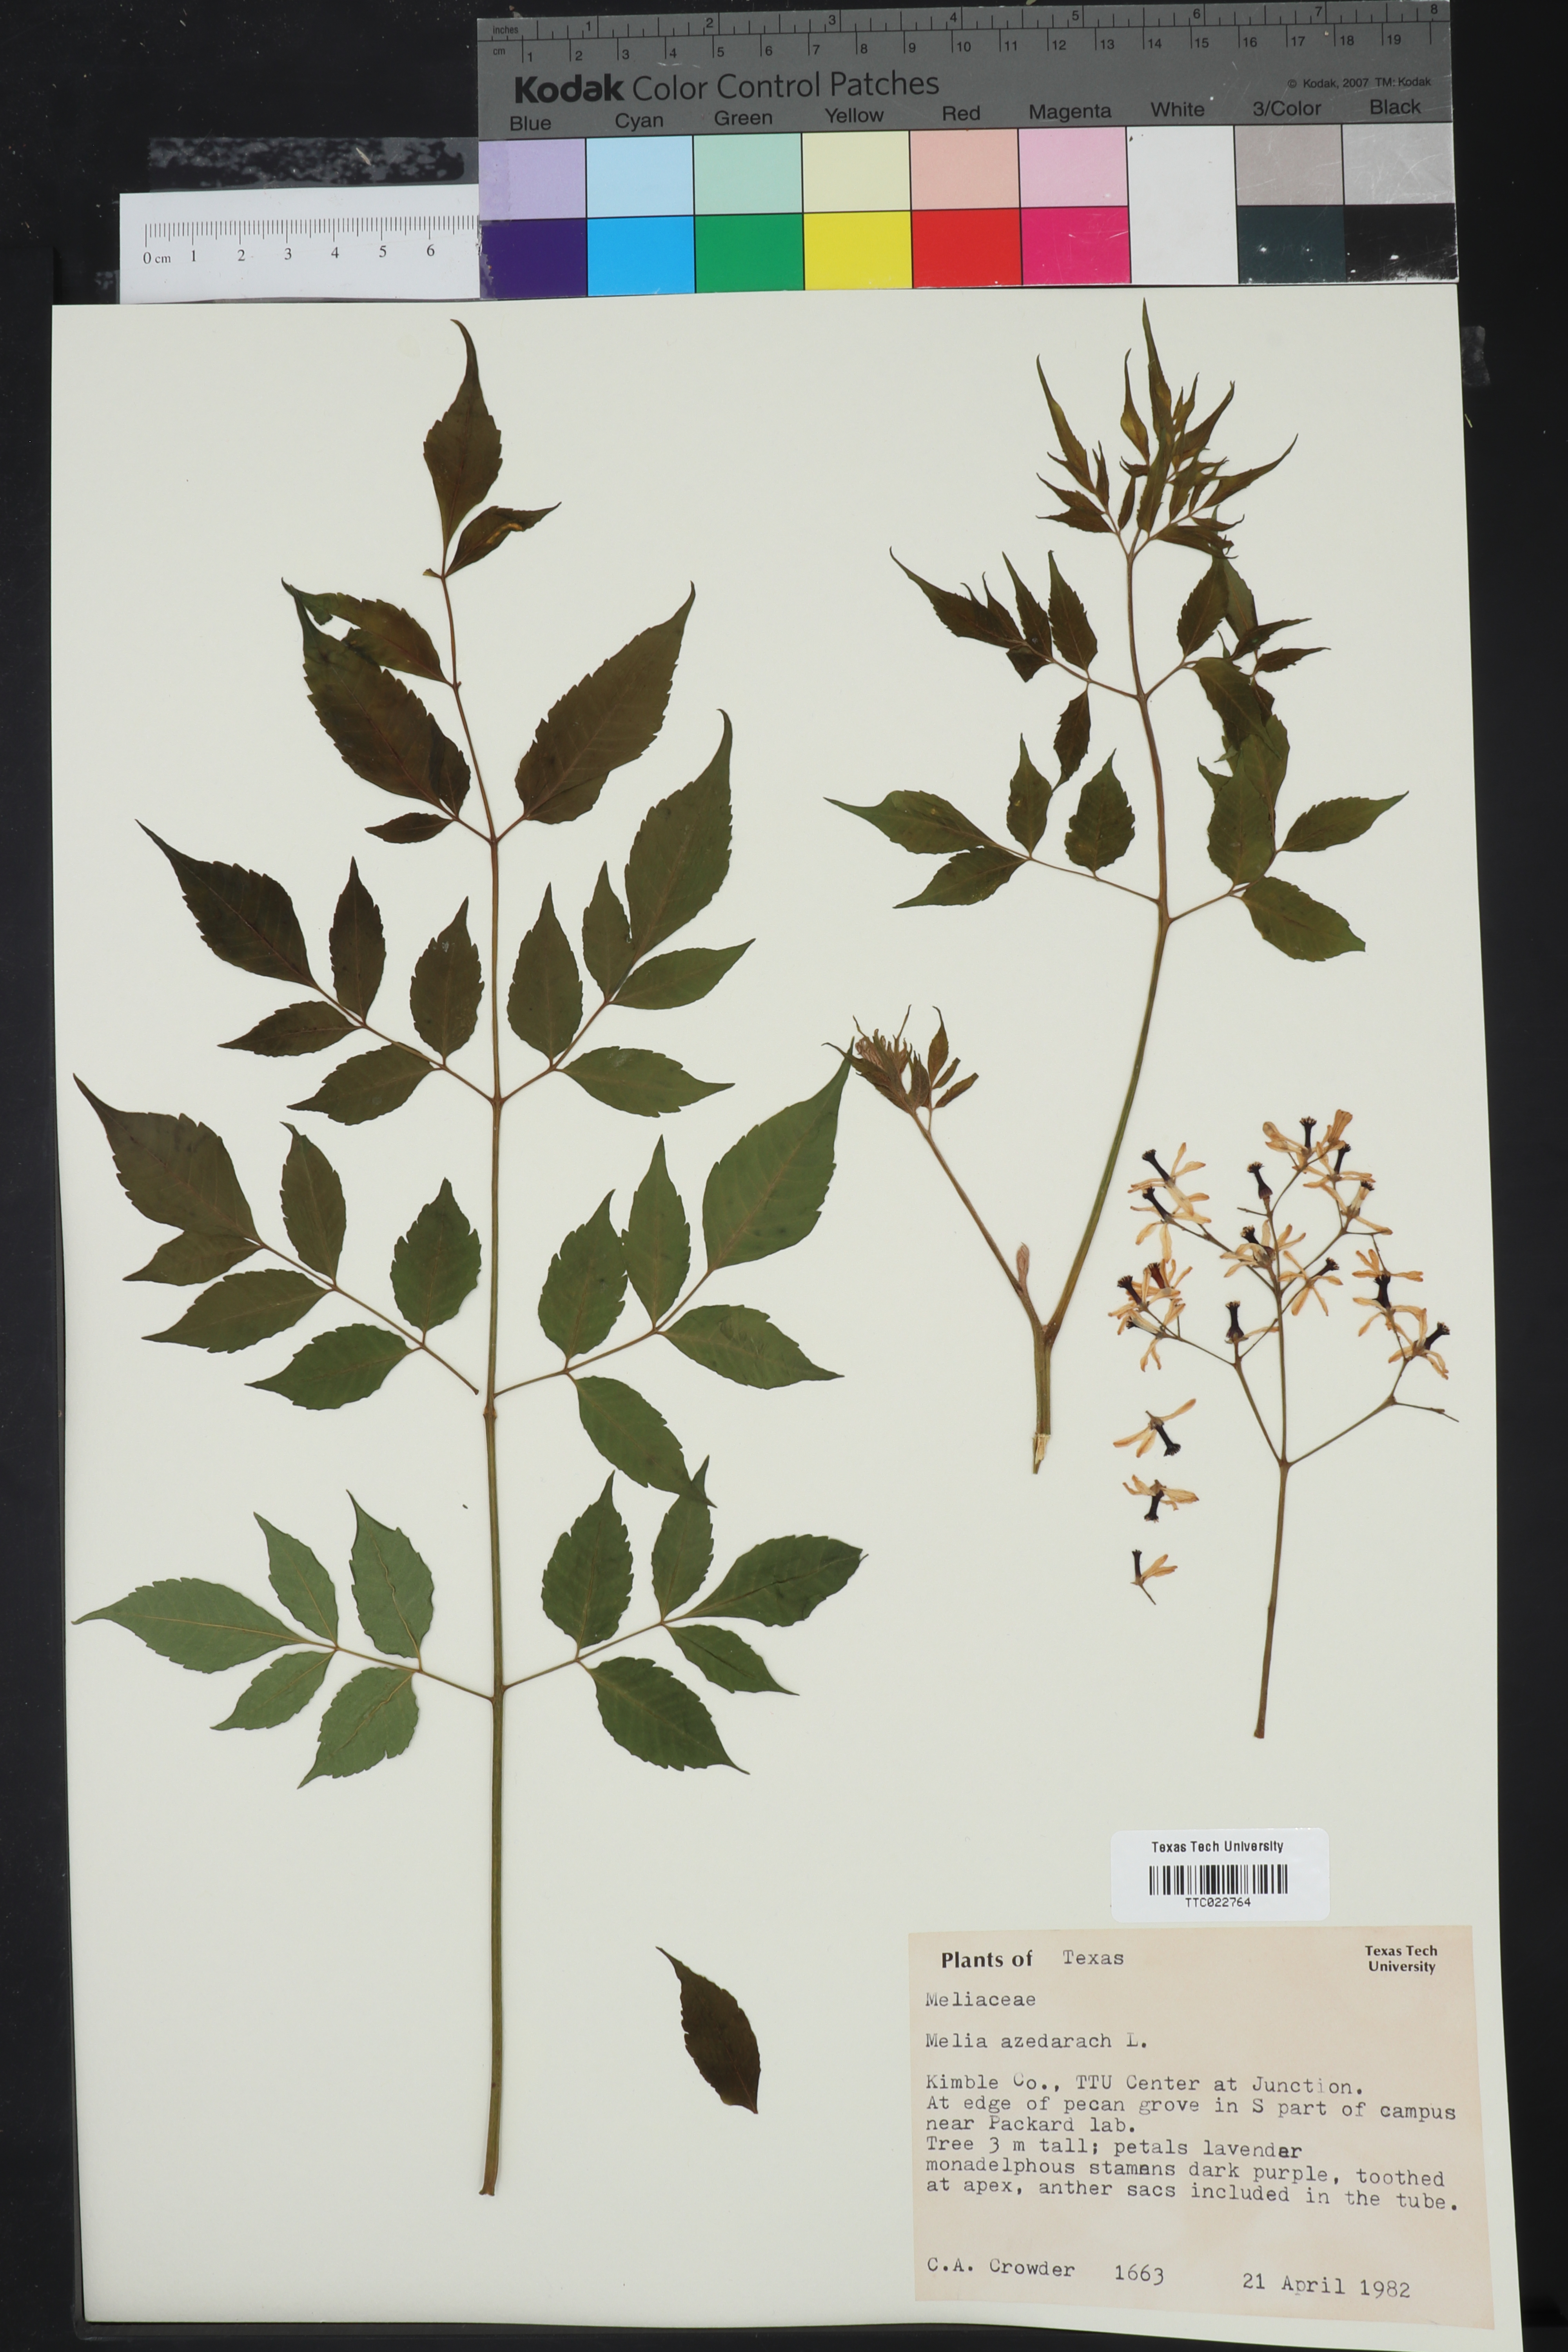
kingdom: Plantae
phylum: Tracheophyta
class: Magnoliopsida
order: Sapindales
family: Meliaceae
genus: Melia
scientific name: Melia azedarach
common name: Chinaberrytree
